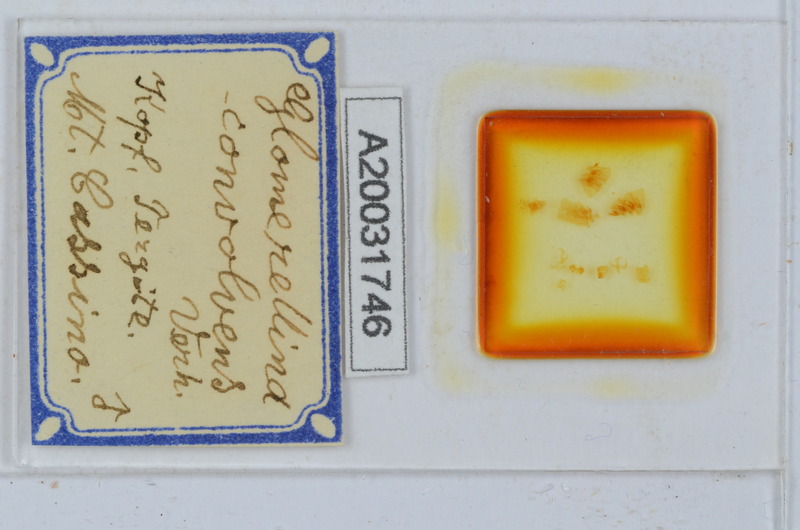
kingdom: Animalia
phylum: Arthropoda
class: Diplopoda
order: Glomerida
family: Protoglomeridae
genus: Glomerellina
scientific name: Glomerellina convolvens
